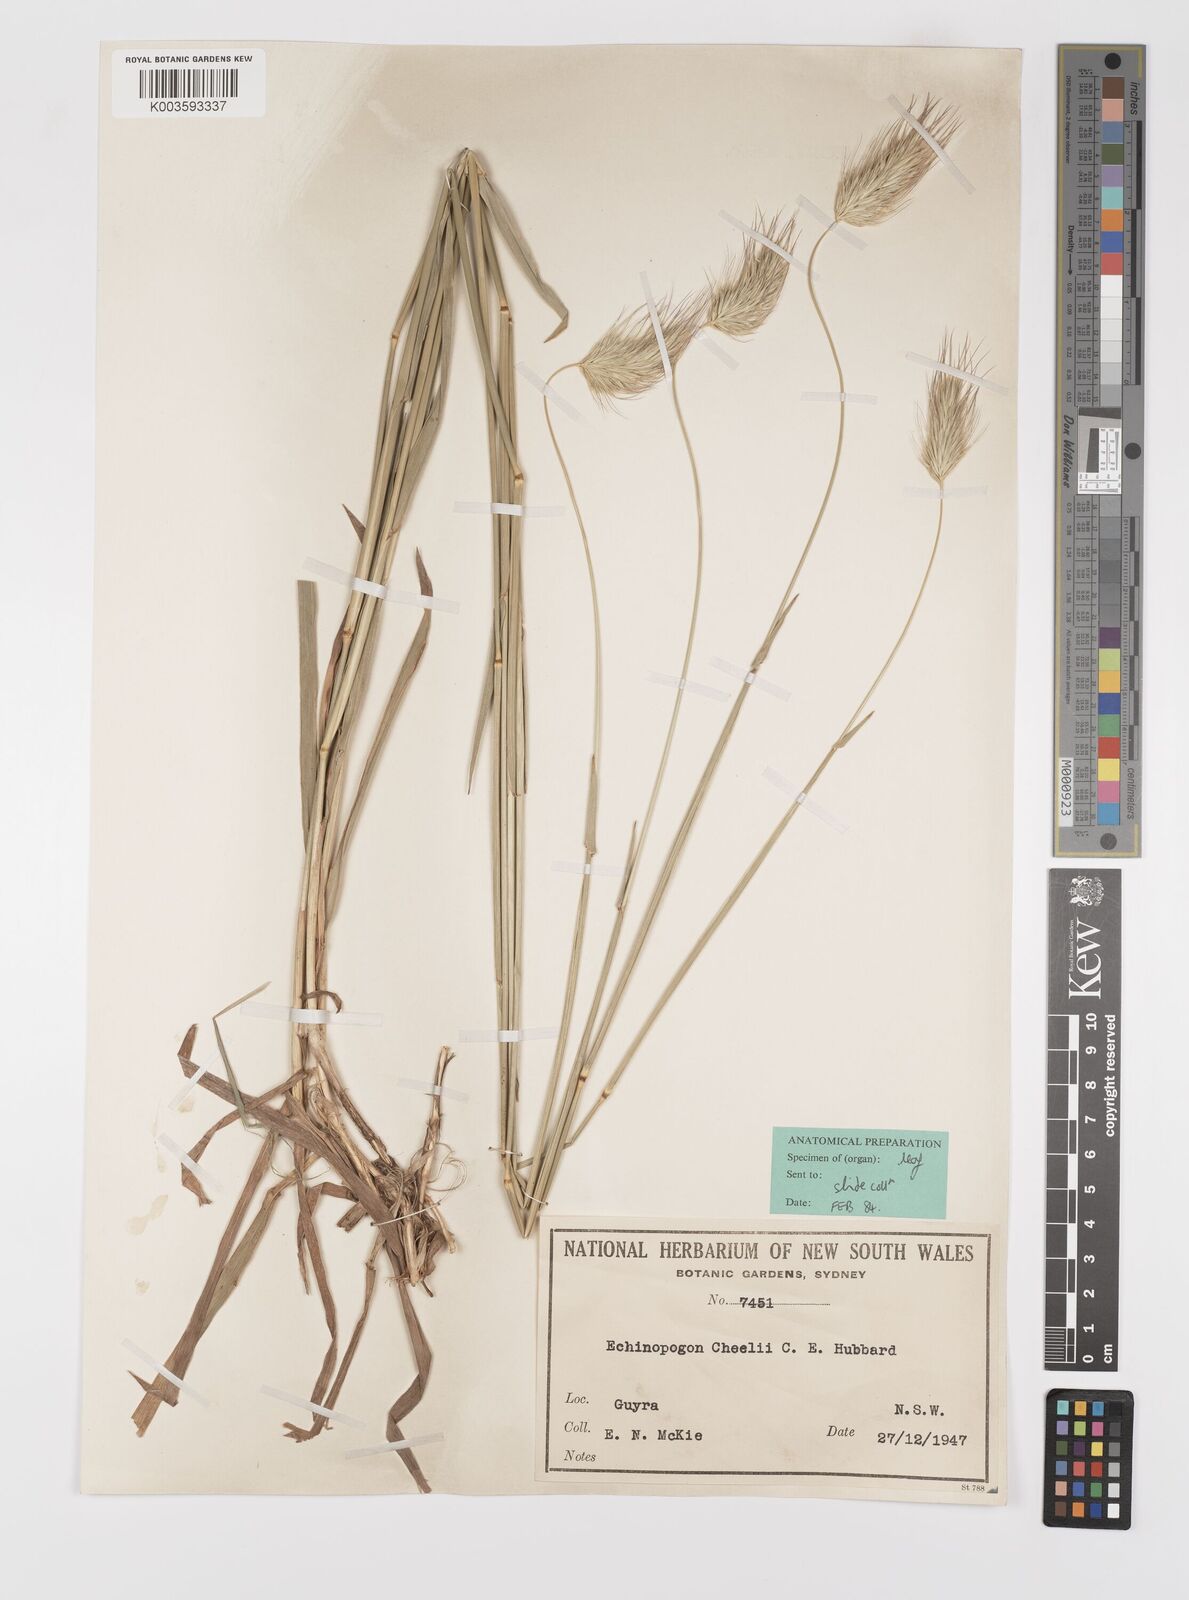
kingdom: Plantae
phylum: Tracheophyta
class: Liliopsida
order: Poales
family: Poaceae
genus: Echinopogon
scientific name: Echinopogon cheelii
